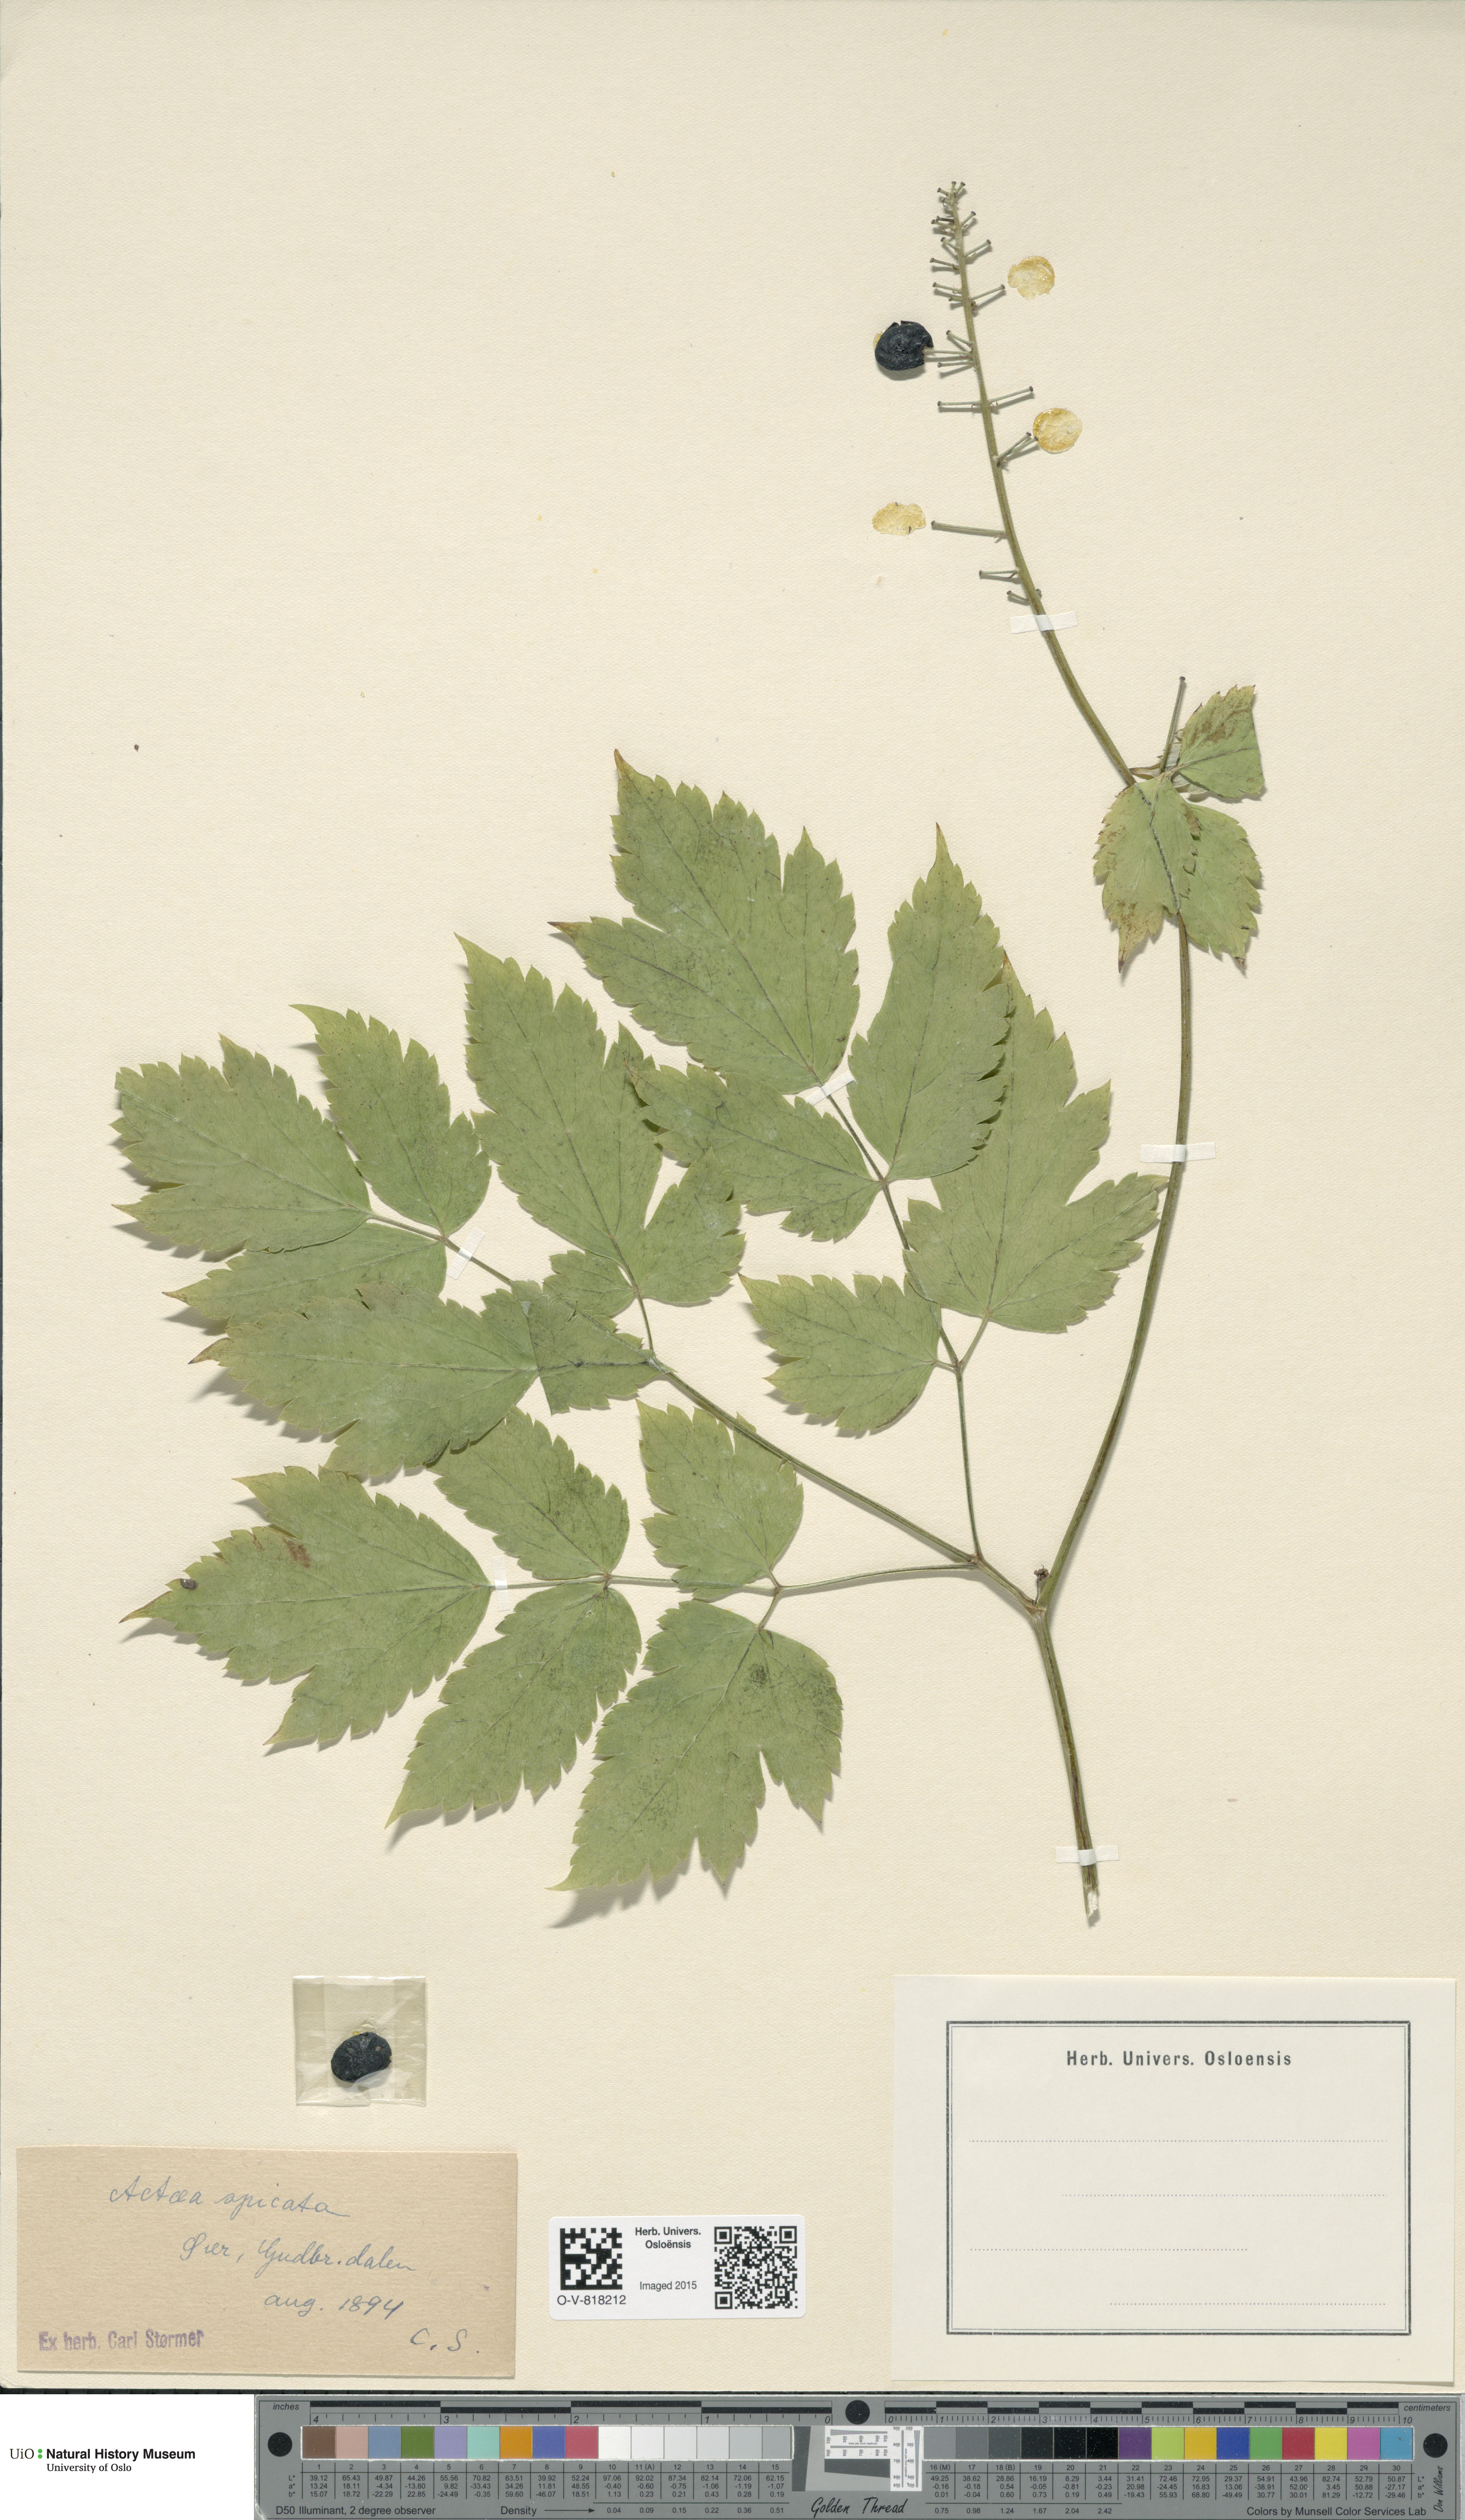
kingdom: Plantae
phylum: Tracheophyta
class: Magnoliopsida
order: Ranunculales
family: Ranunculaceae
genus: Actaea
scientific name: Actaea spicata
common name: Baneberry
